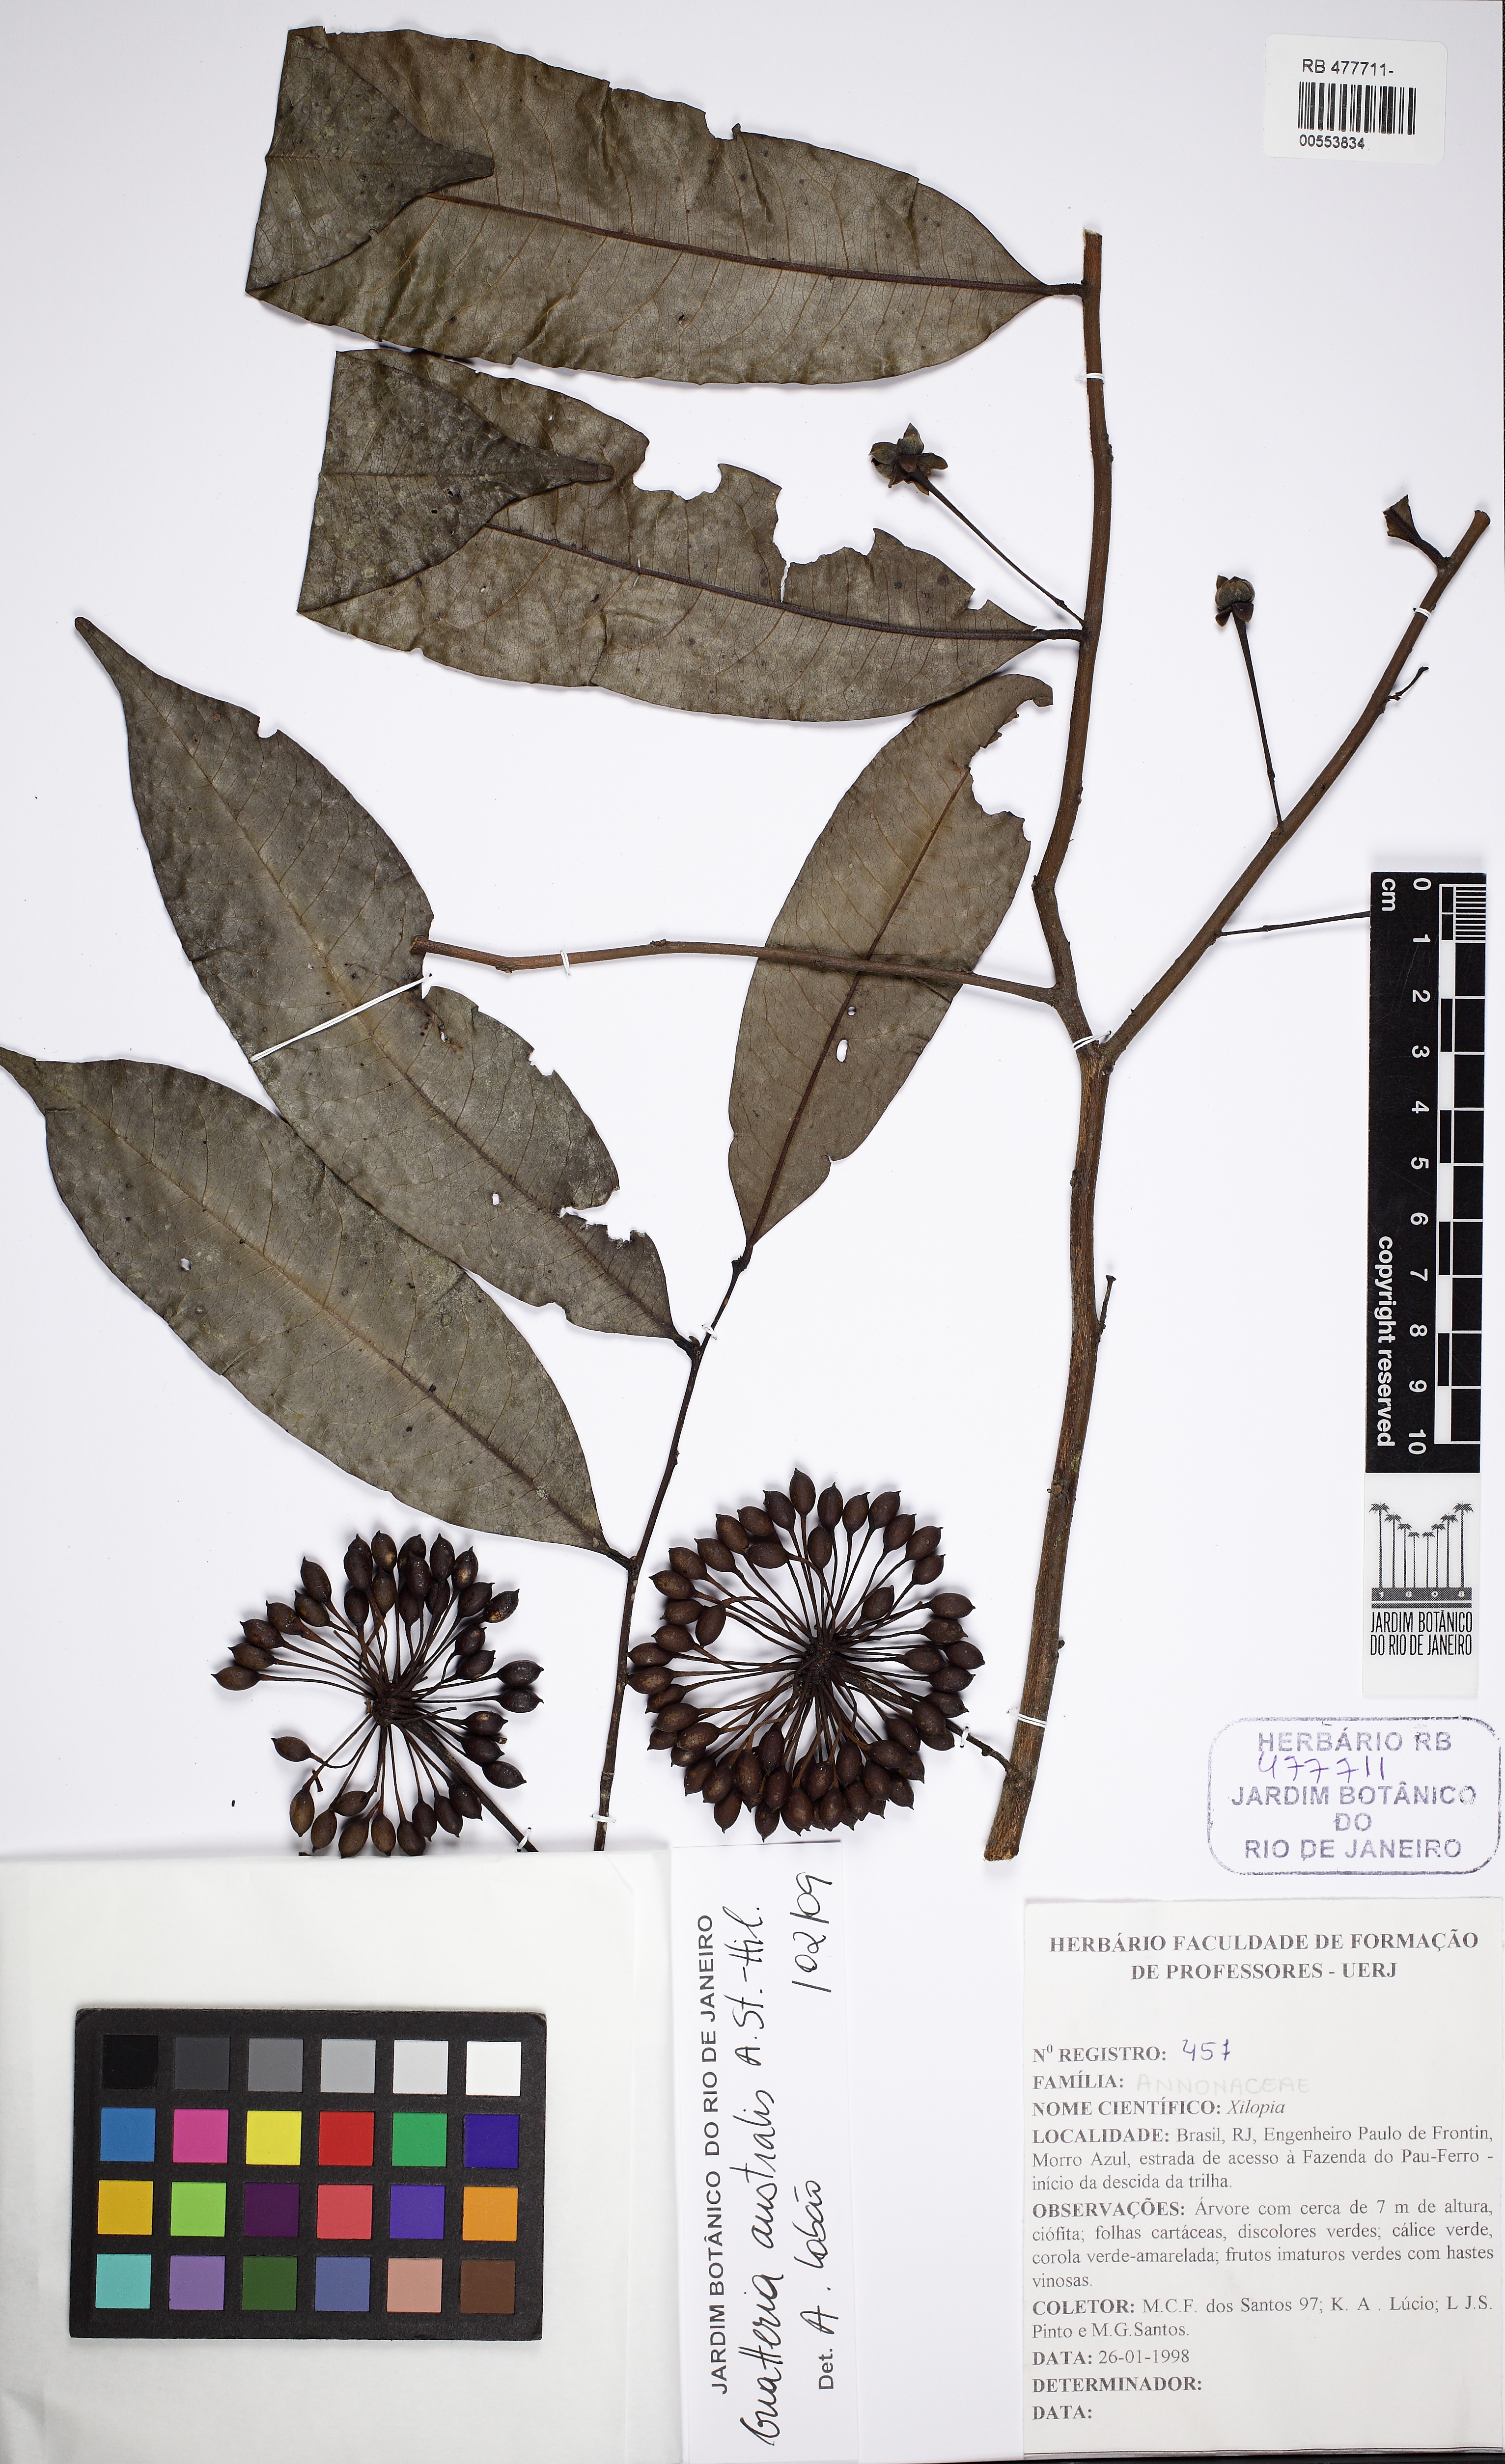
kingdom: Plantae
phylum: Tracheophyta
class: Magnoliopsida
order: Magnoliales
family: Annonaceae
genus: Guatteria
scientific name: Guatteria australis
